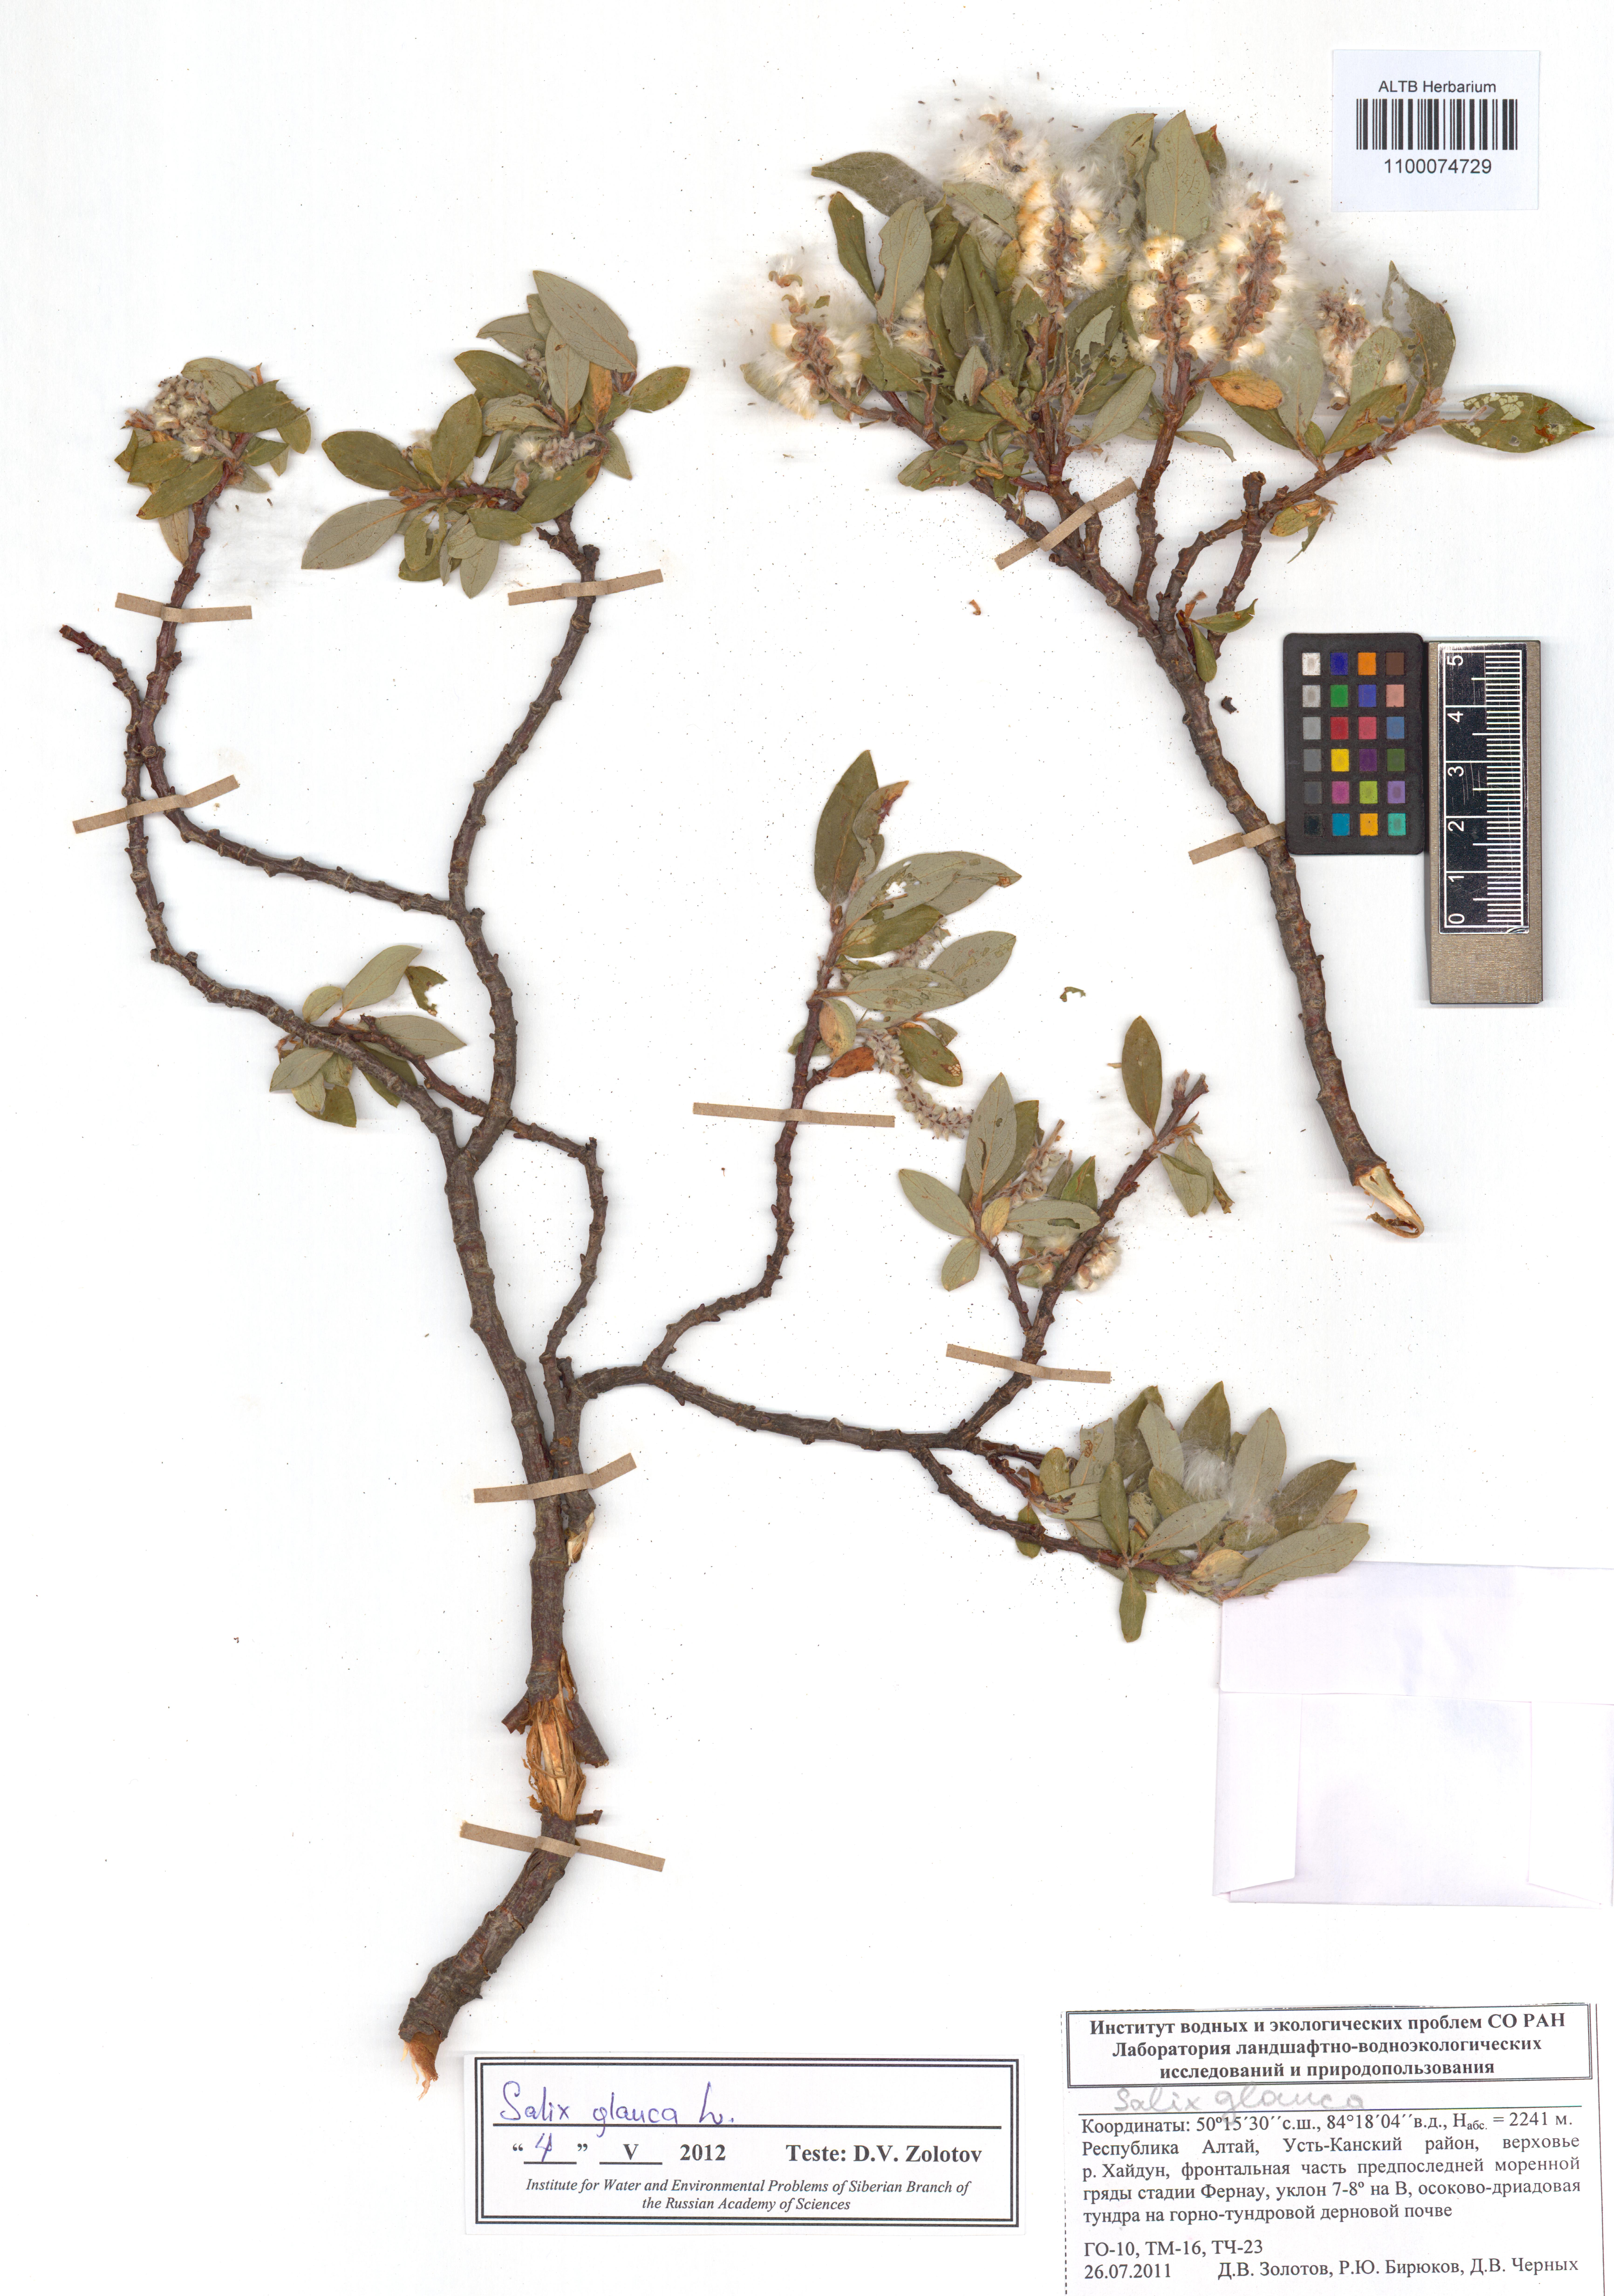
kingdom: Plantae
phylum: Tracheophyta
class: Magnoliopsida
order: Malpighiales
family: Salicaceae
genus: Salix
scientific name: Salix glauca
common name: Glaucous willow
